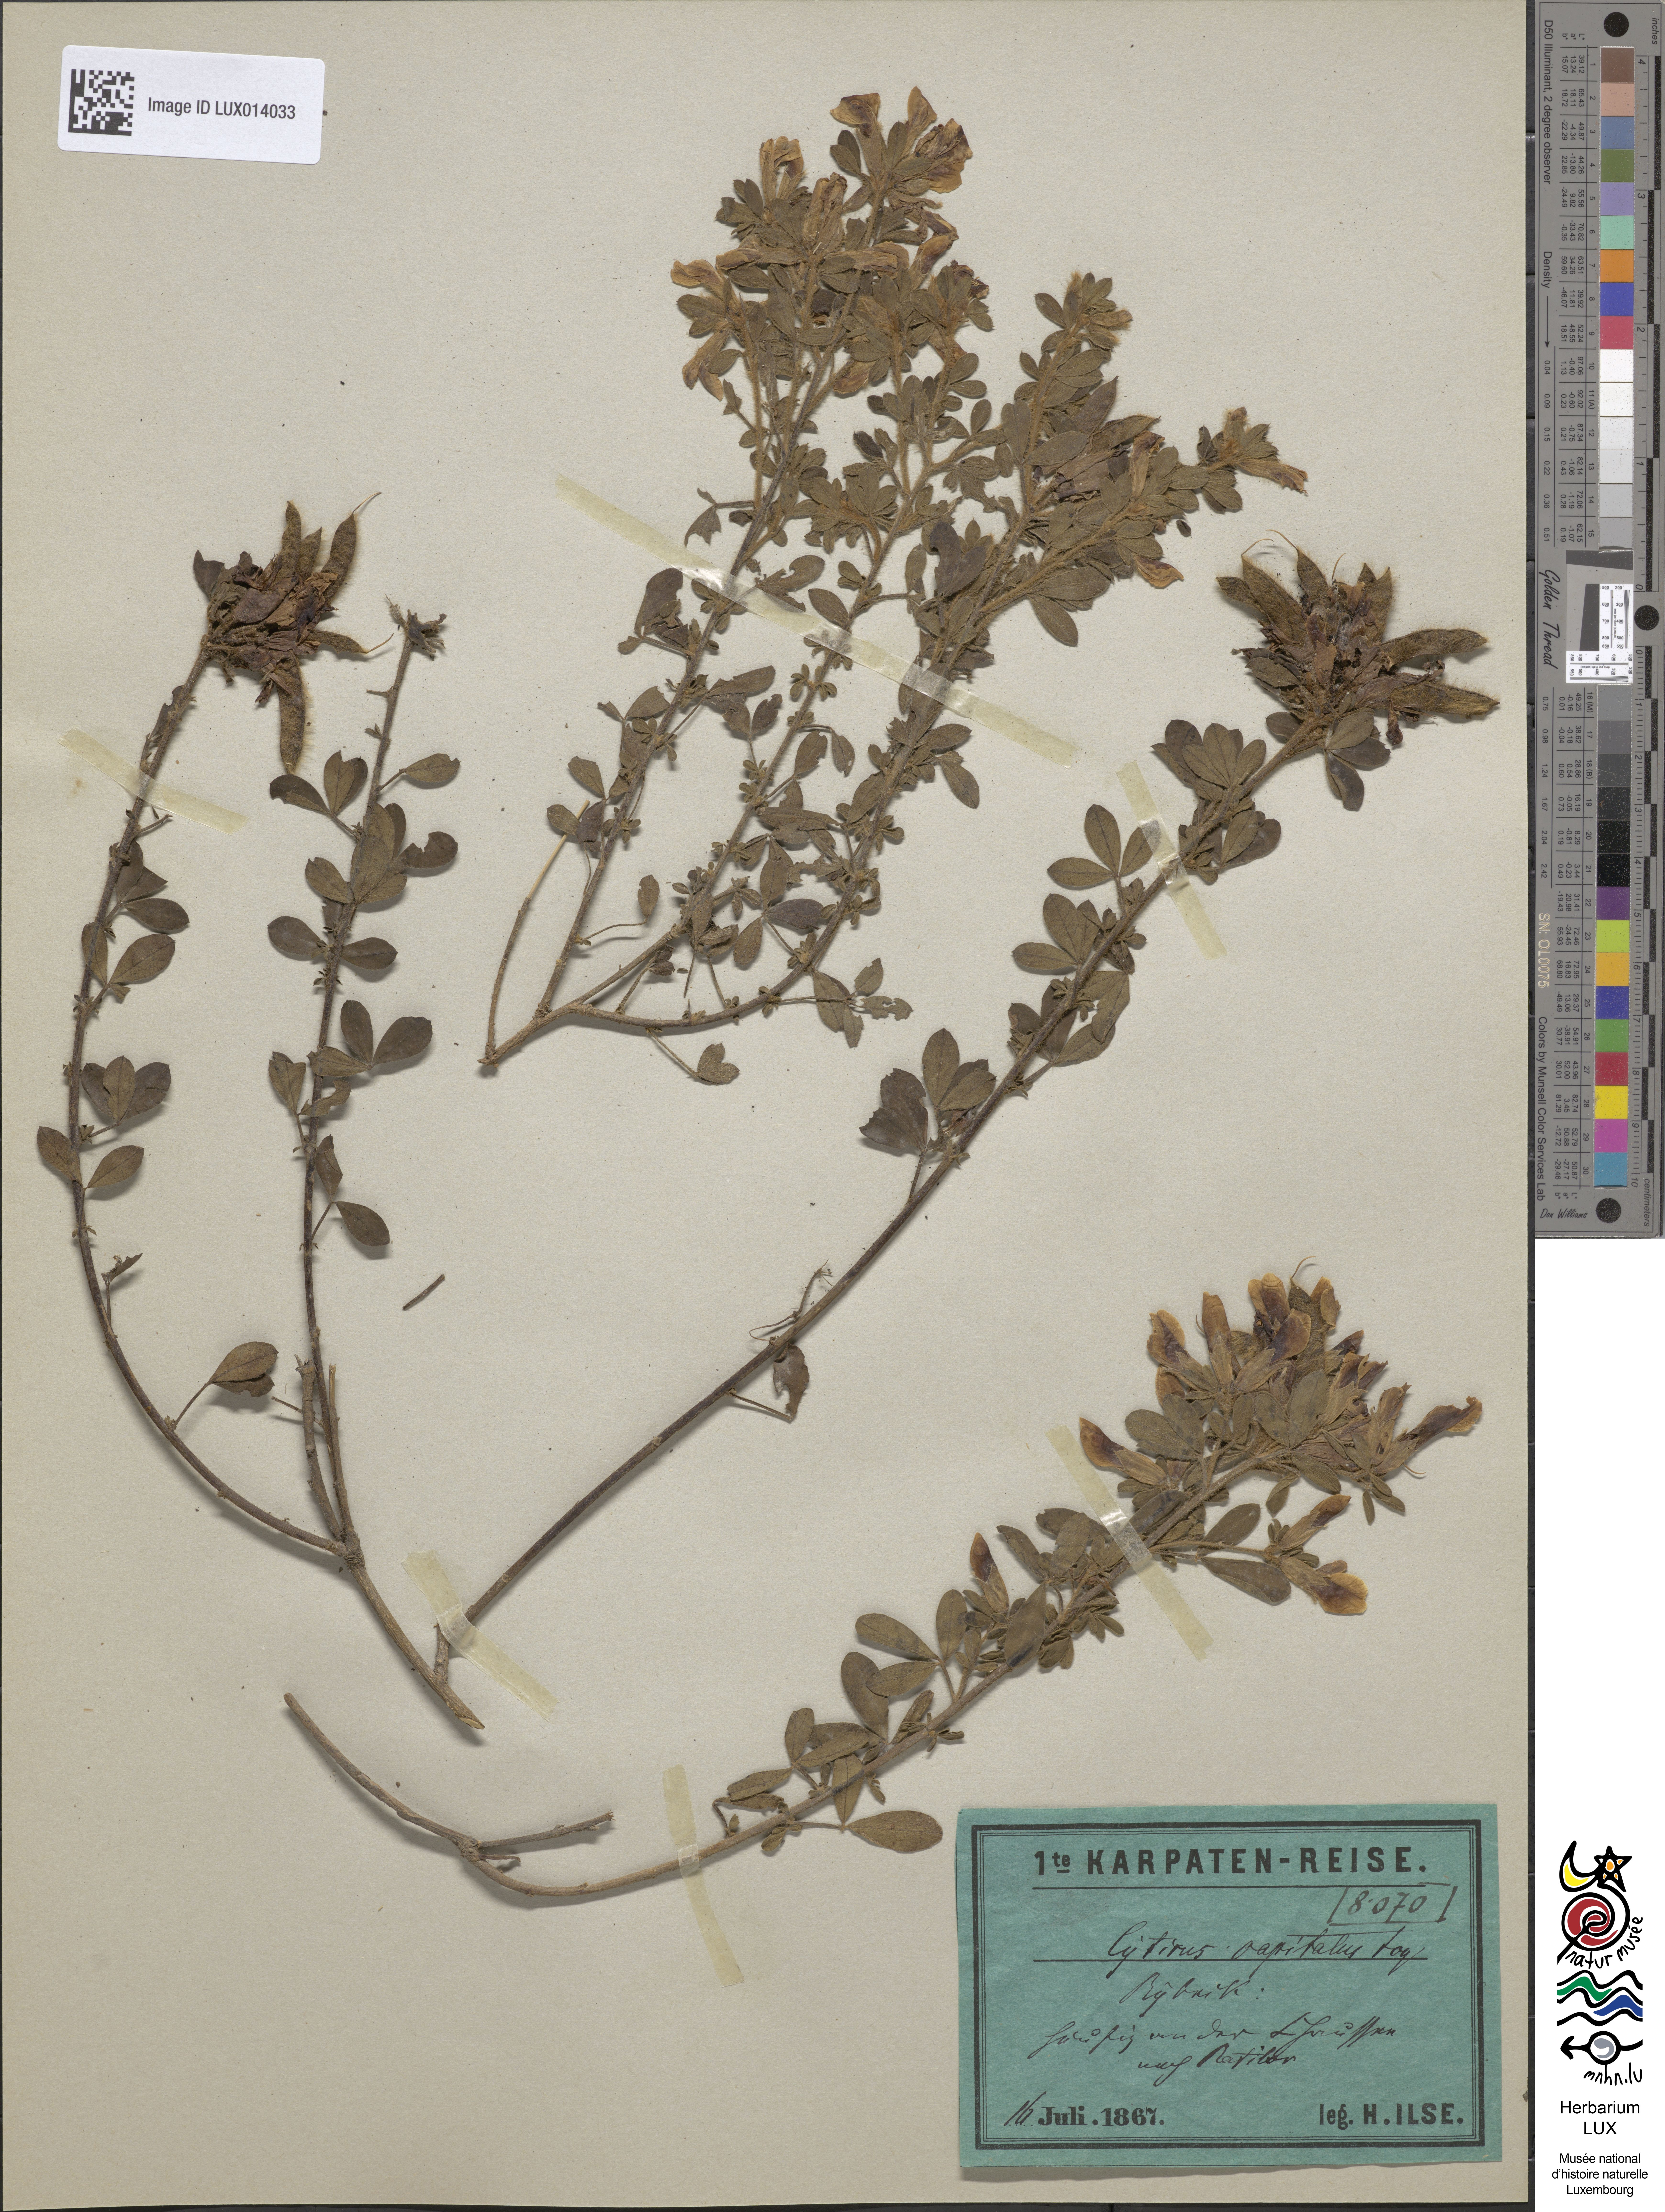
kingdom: Plantae
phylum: Tracheophyta
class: Magnoliopsida
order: Fabales
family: Fabaceae
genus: Chamaecytisus
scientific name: Chamaecytisus hirsutus
